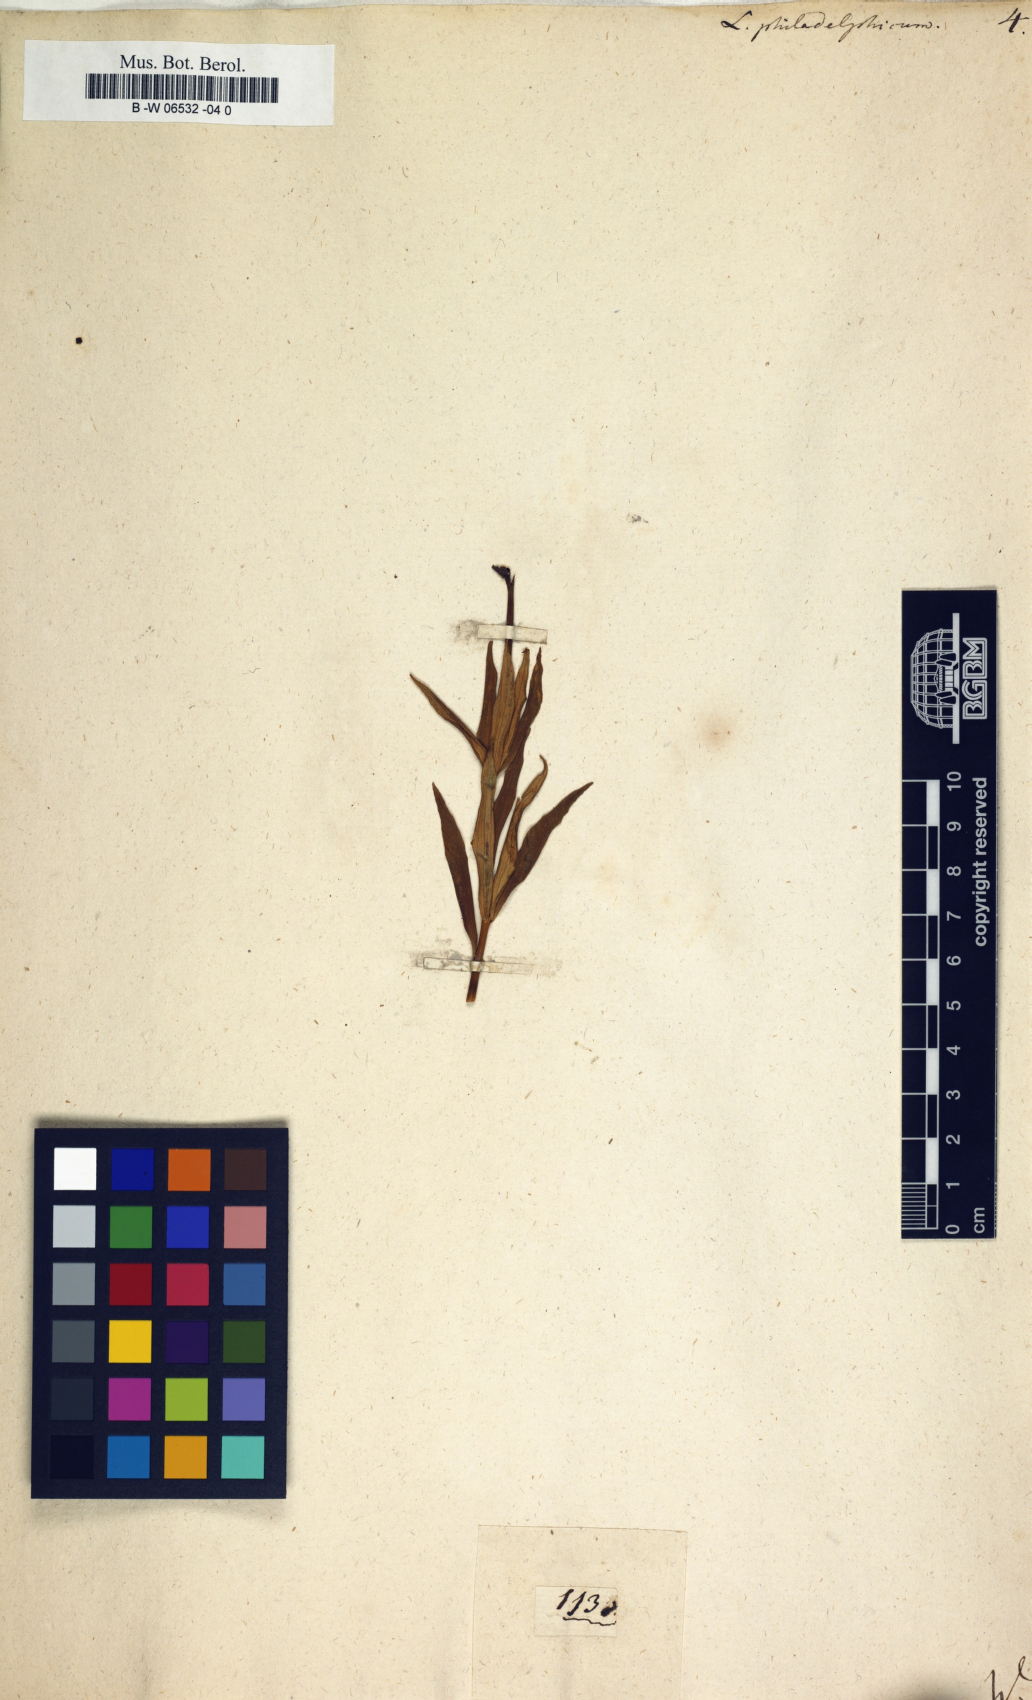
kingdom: Plantae
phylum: Tracheophyta
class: Liliopsida
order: Liliales
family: Liliaceae
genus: Lilium
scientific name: Lilium philadelphicum
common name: Red lily
